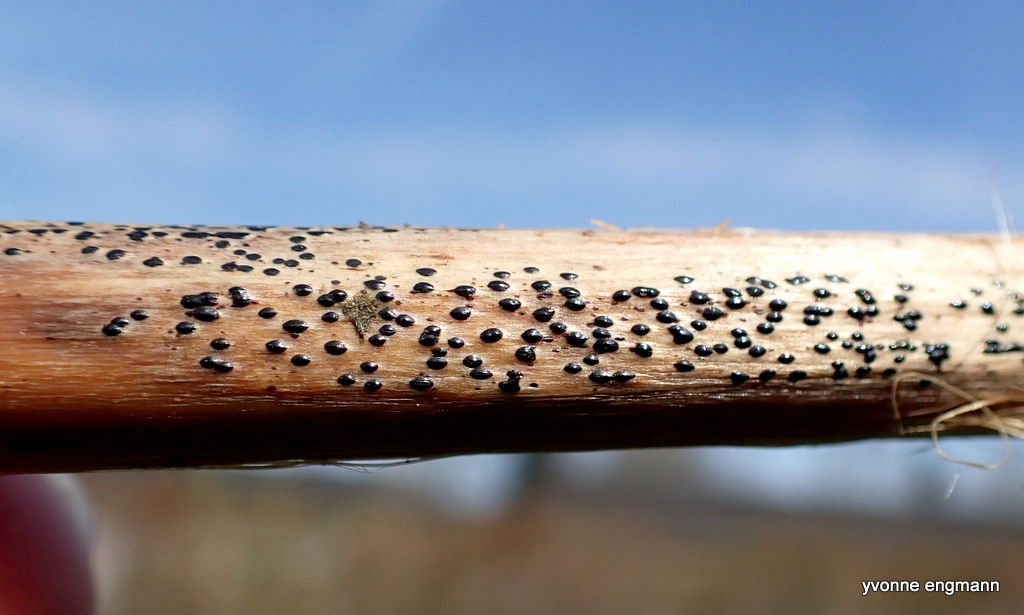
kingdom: Fungi
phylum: Ascomycota
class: Leotiomycetes
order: Rhytismatales
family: Rhytismataceae
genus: Lophodermium
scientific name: Lophodermium paeoniae
